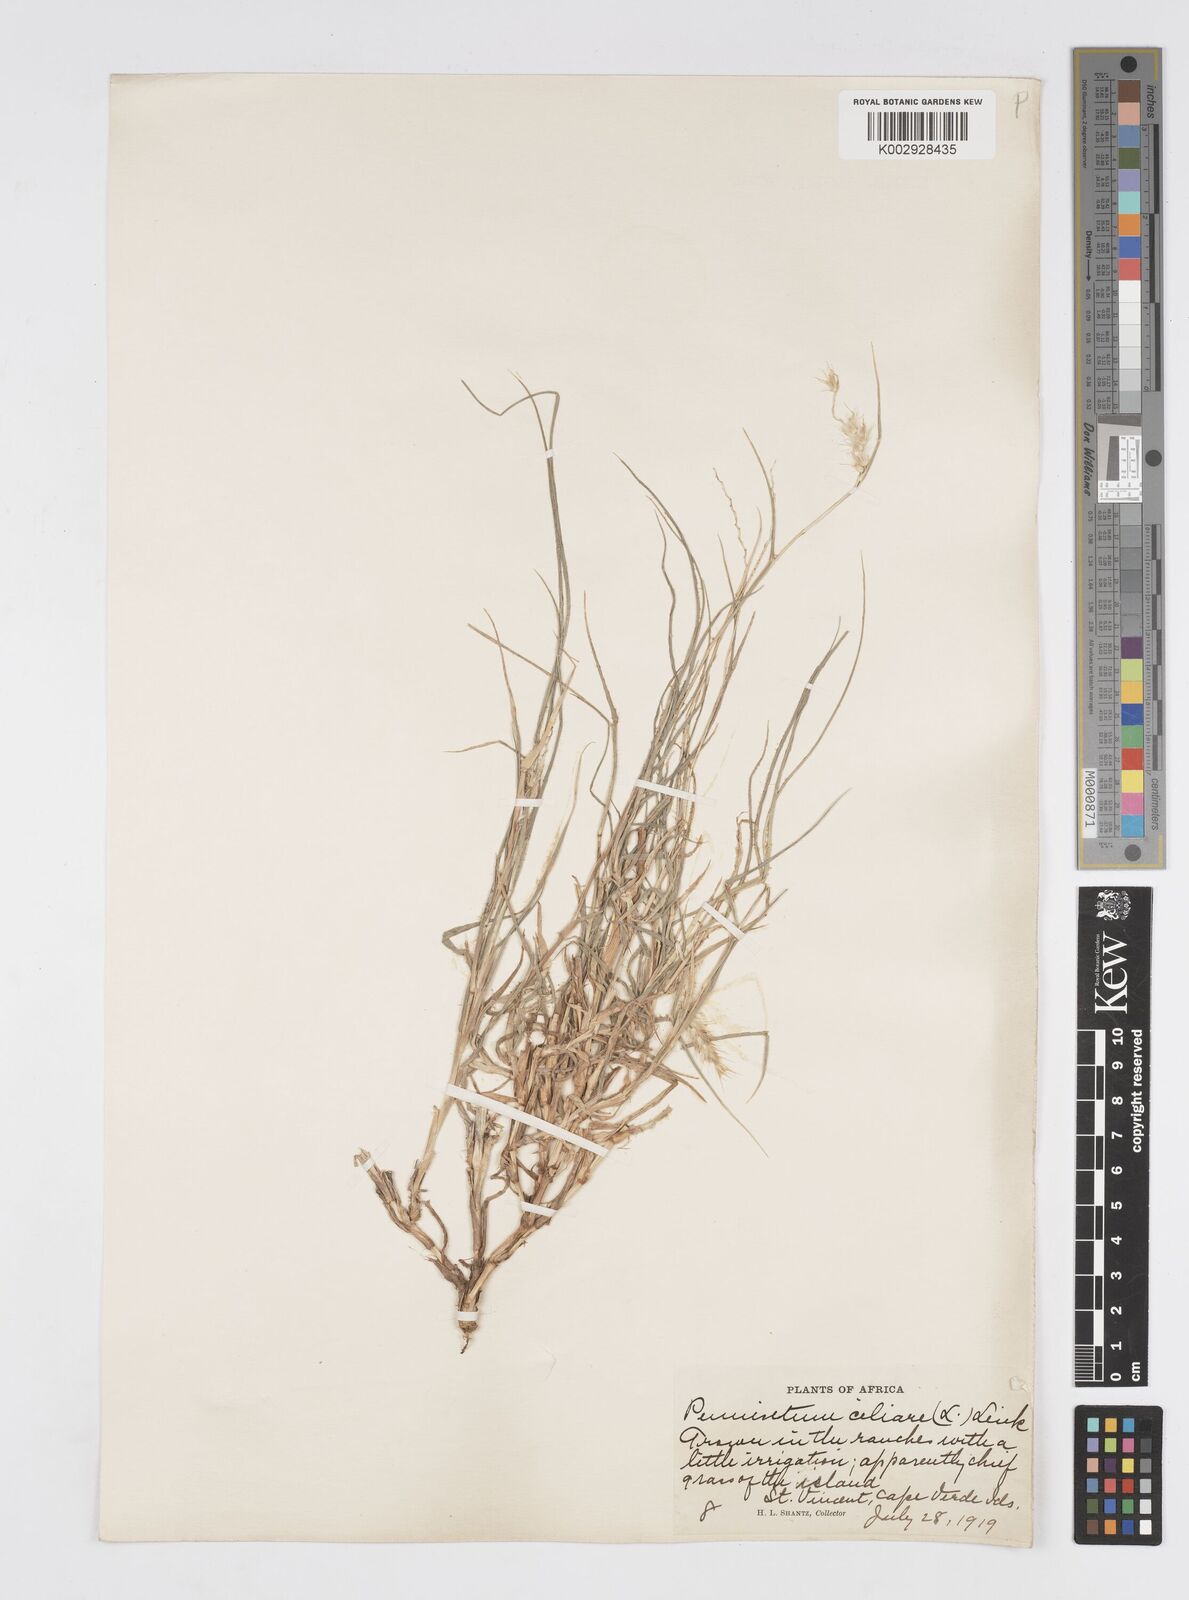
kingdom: Plantae
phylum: Tracheophyta
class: Liliopsida
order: Poales
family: Poaceae
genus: Cenchrus
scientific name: Cenchrus ciliaris
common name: Buffelgrass
